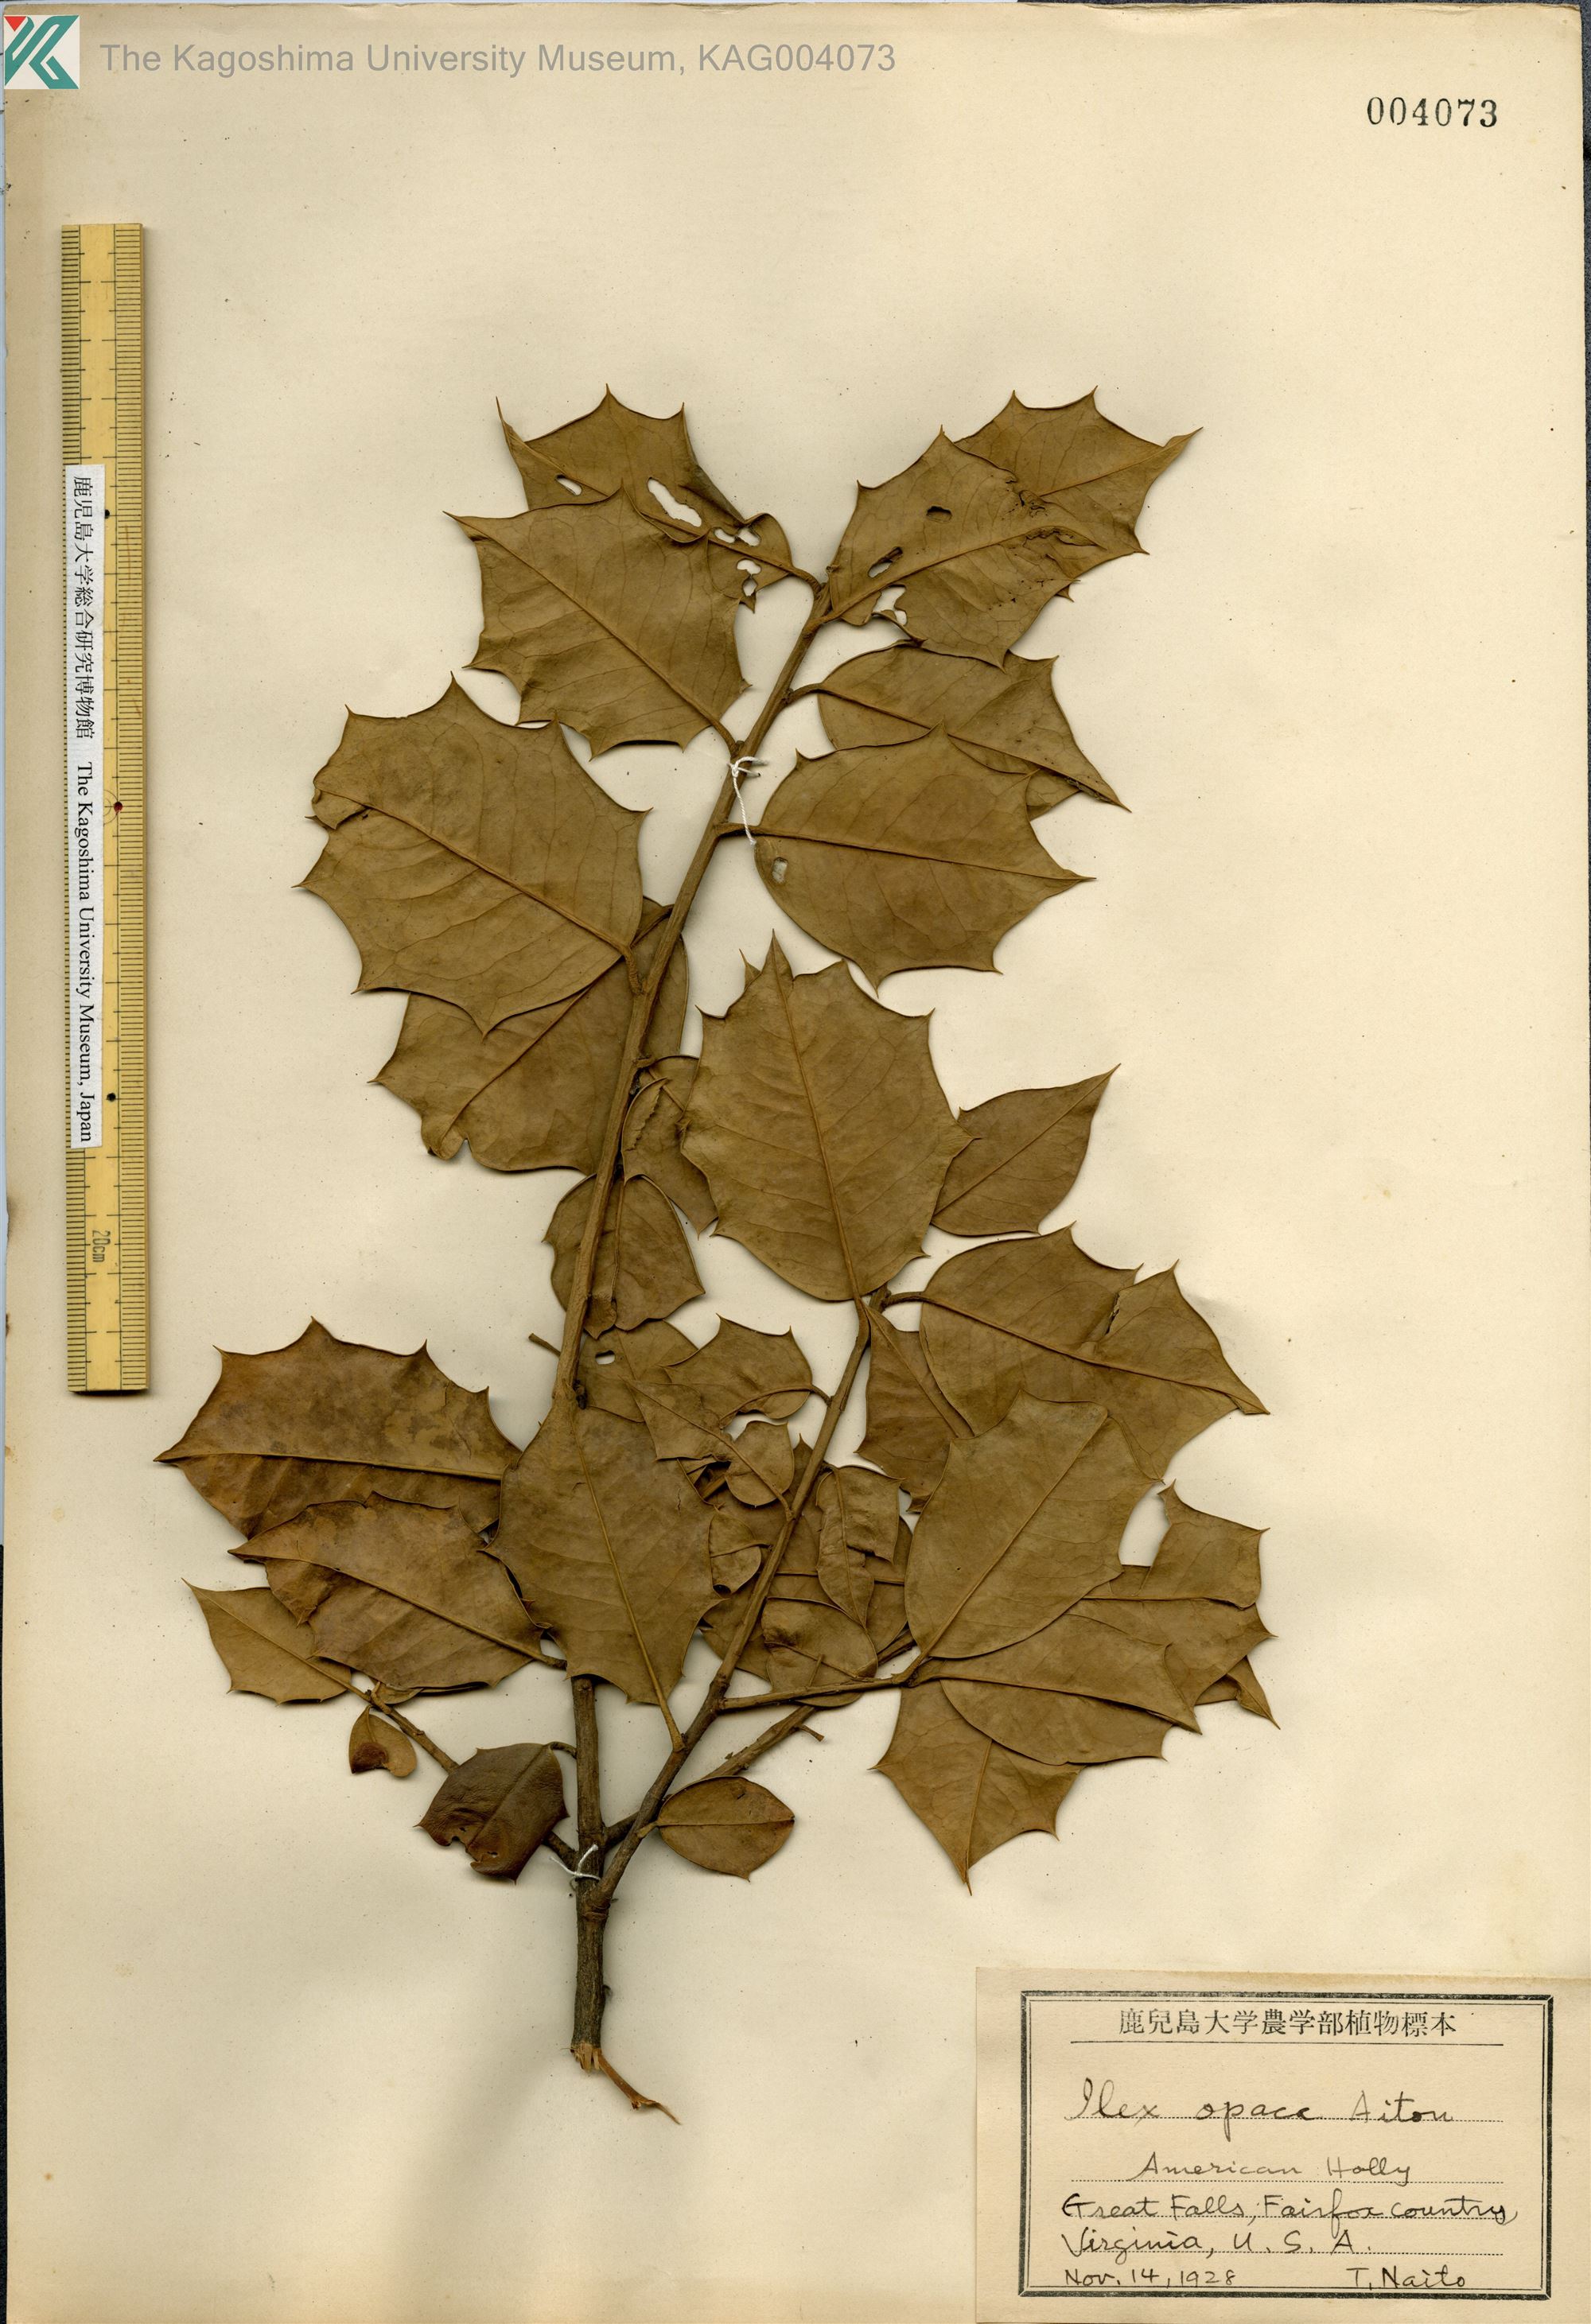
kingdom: Plantae
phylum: Tracheophyta
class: Magnoliopsida
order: Aquifoliales
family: Aquifoliaceae
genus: Ilex
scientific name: Ilex opaca
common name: American holly
